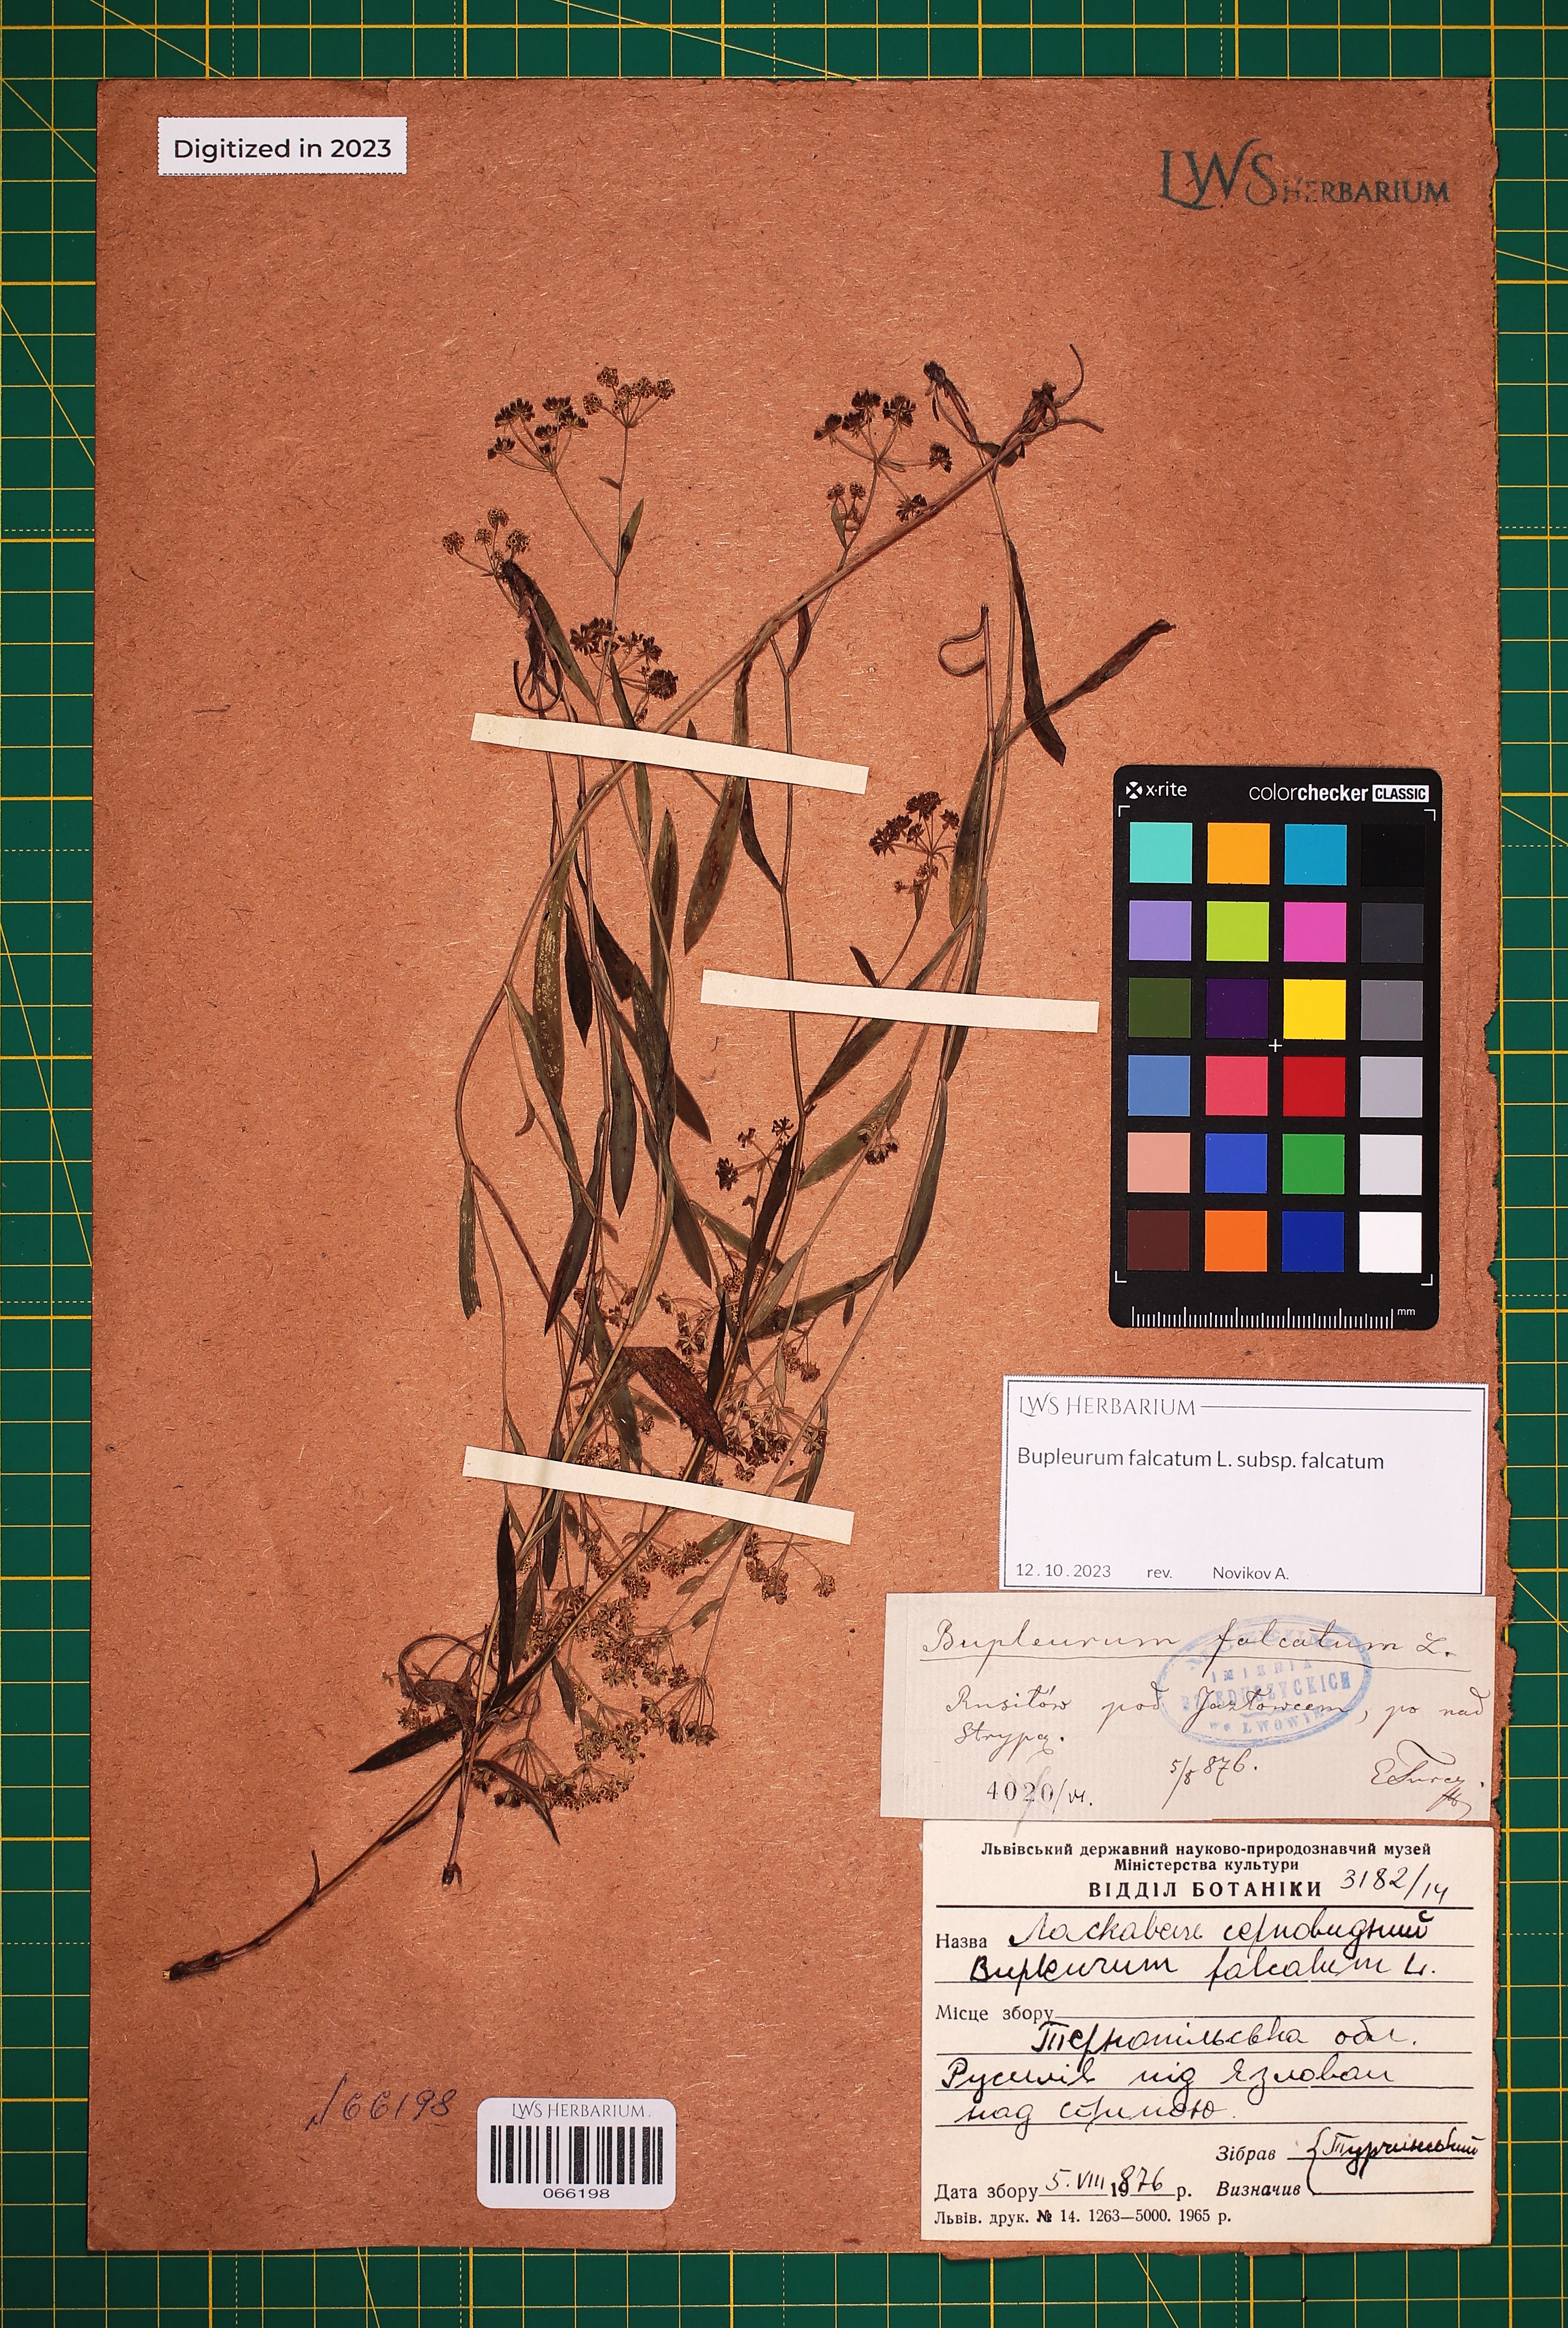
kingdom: Plantae
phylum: Tracheophyta
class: Magnoliopsida
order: Apiales
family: Apiaceae
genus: Bupleurum
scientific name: Bupleurum falcatum
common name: Sickle-leaved hare's-ear
